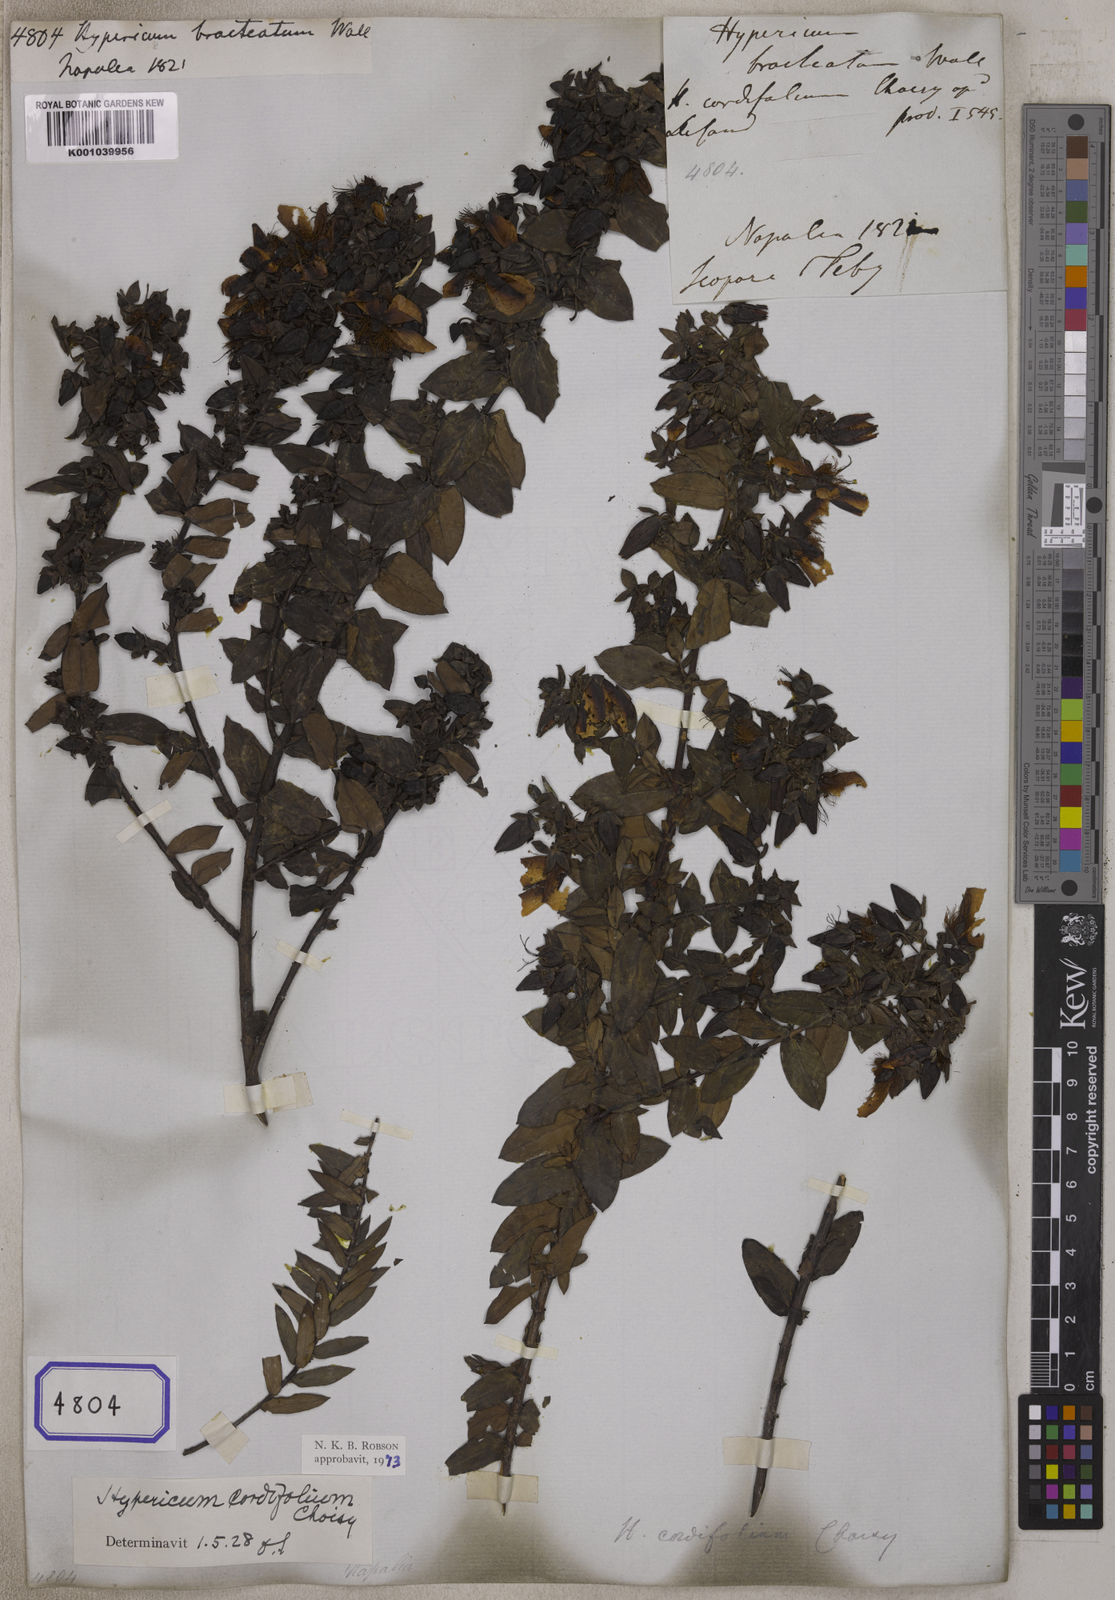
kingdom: Plantae
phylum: Tracheophyta
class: Magnoliopsida
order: Malpighiales
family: Hypericaceae
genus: Hypericum
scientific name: Hypericum
